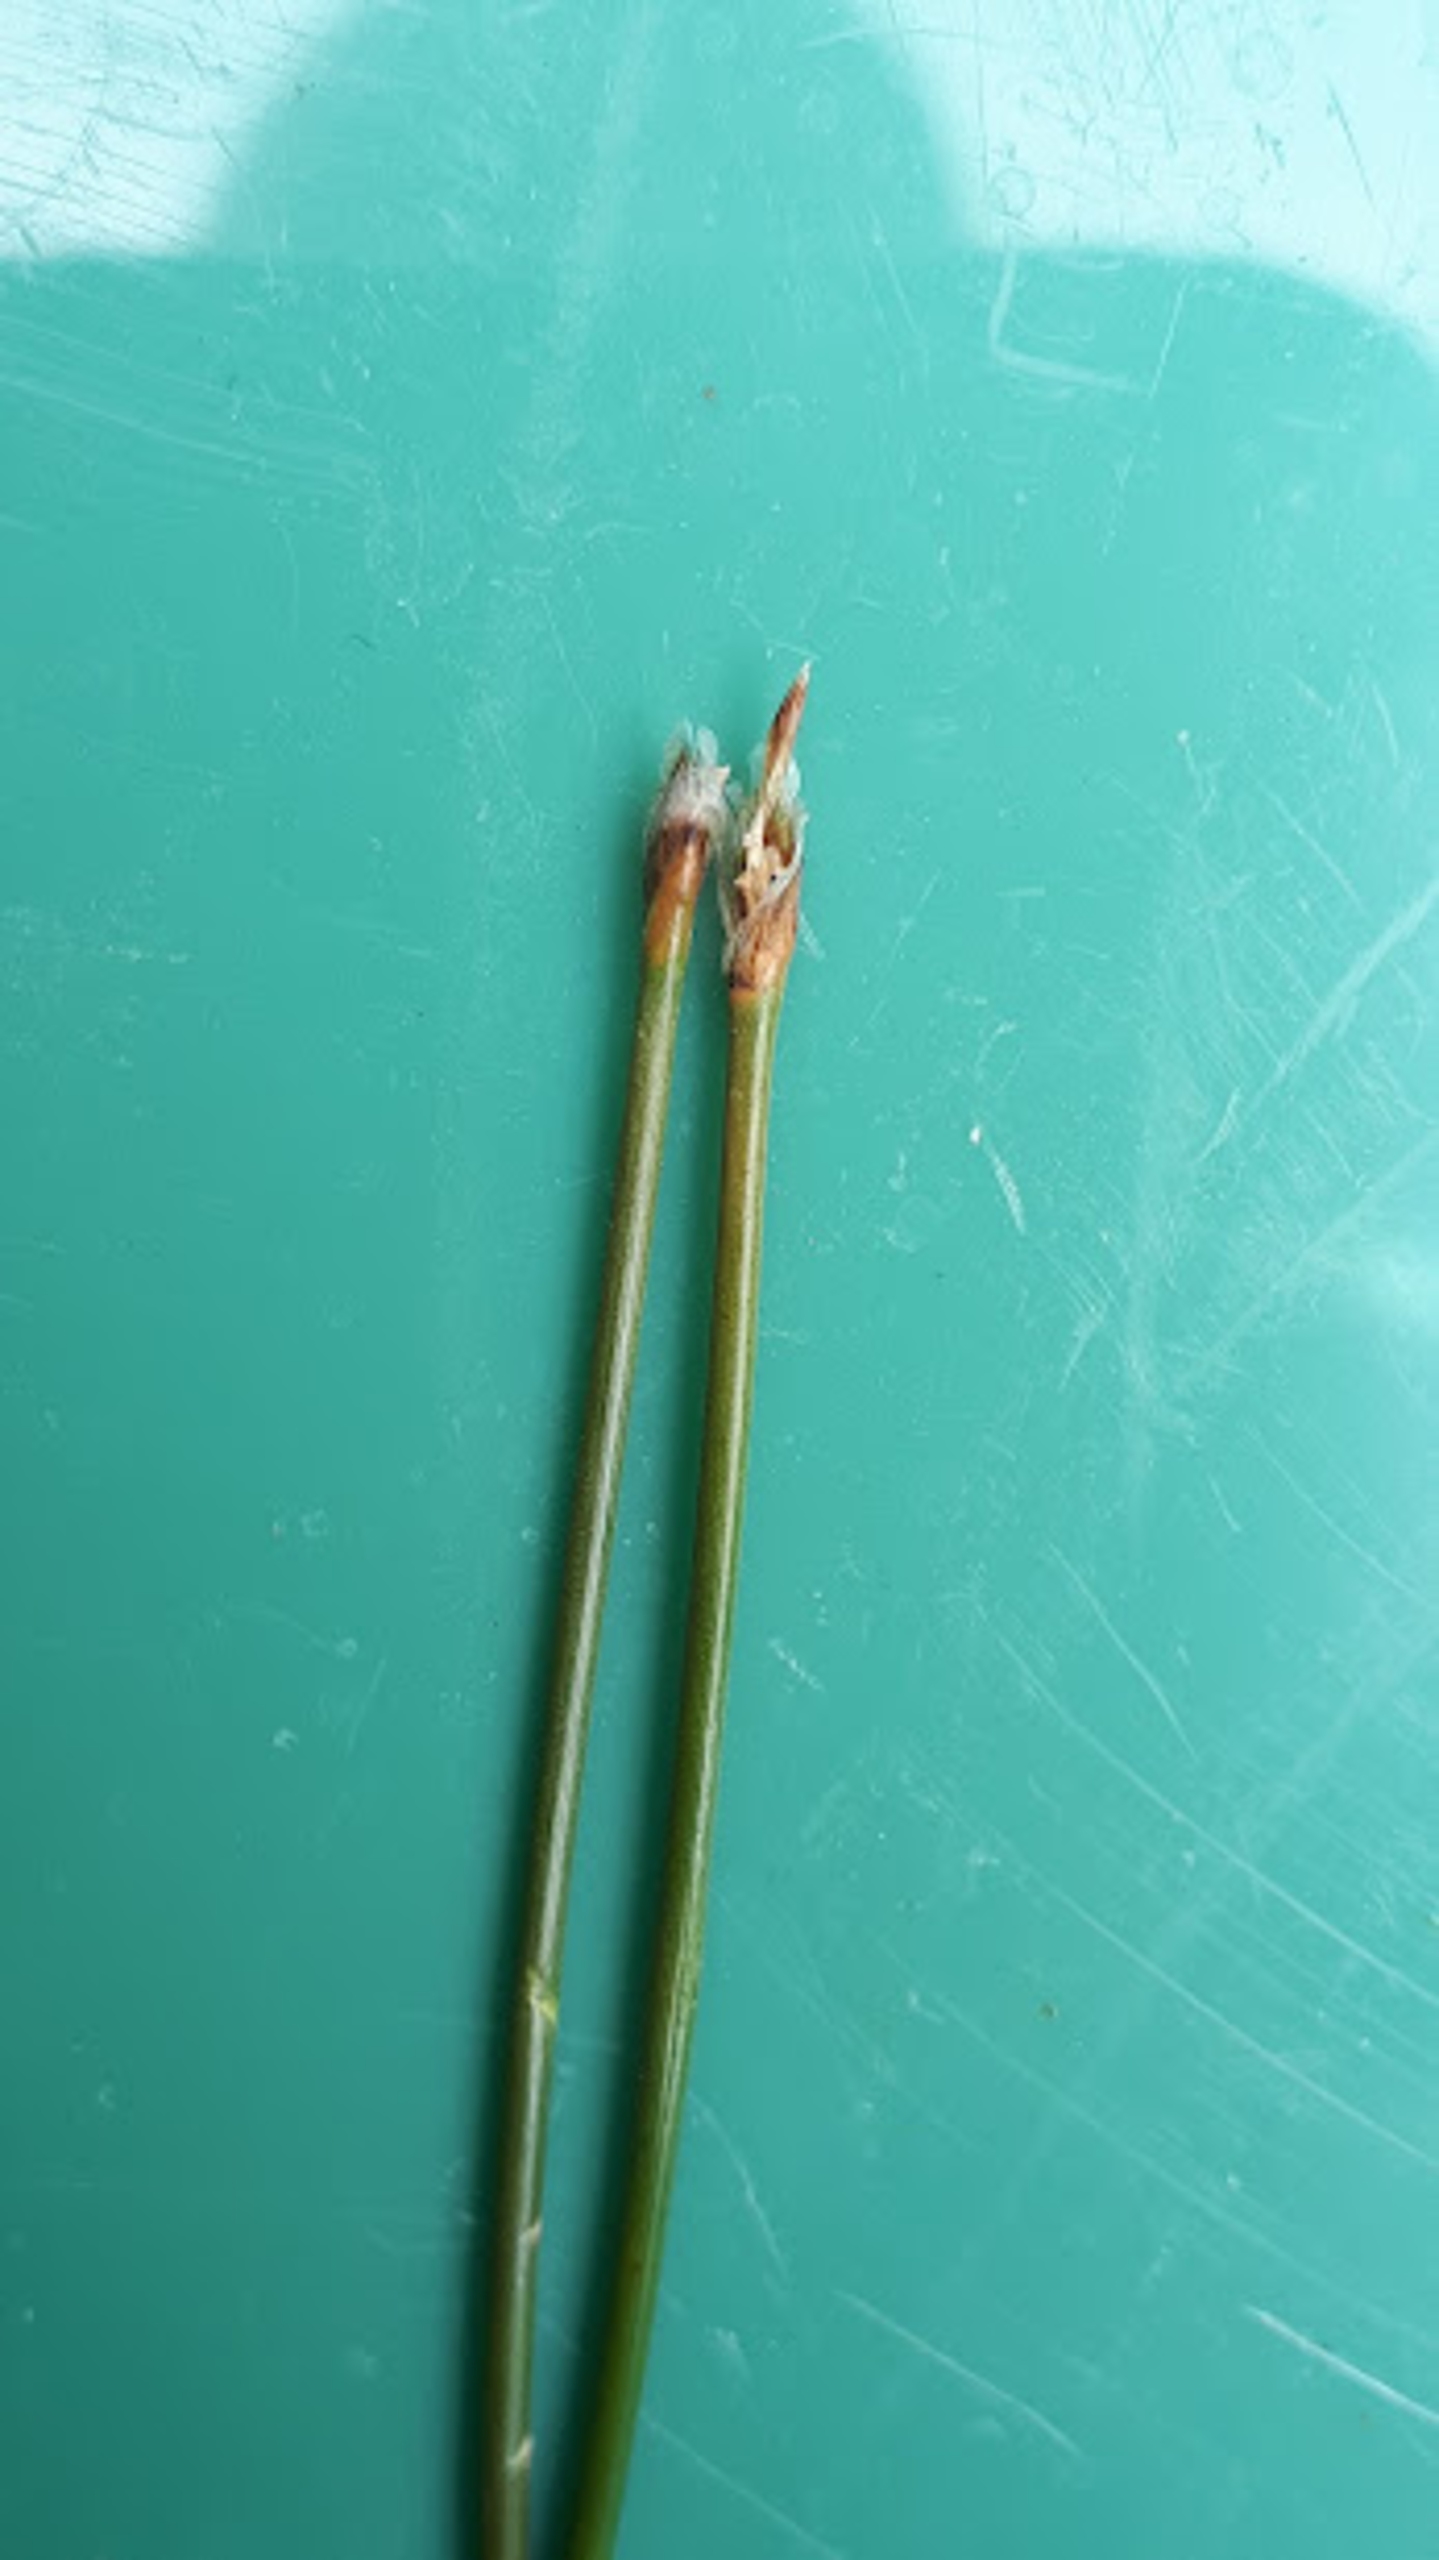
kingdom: Plantae
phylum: Tracheophyta
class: Liliopsida
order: Poales
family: Cyperaceae
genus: Eleocharis
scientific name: Eleocharis multicaulis
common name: Mangestænglet sumpstrå
